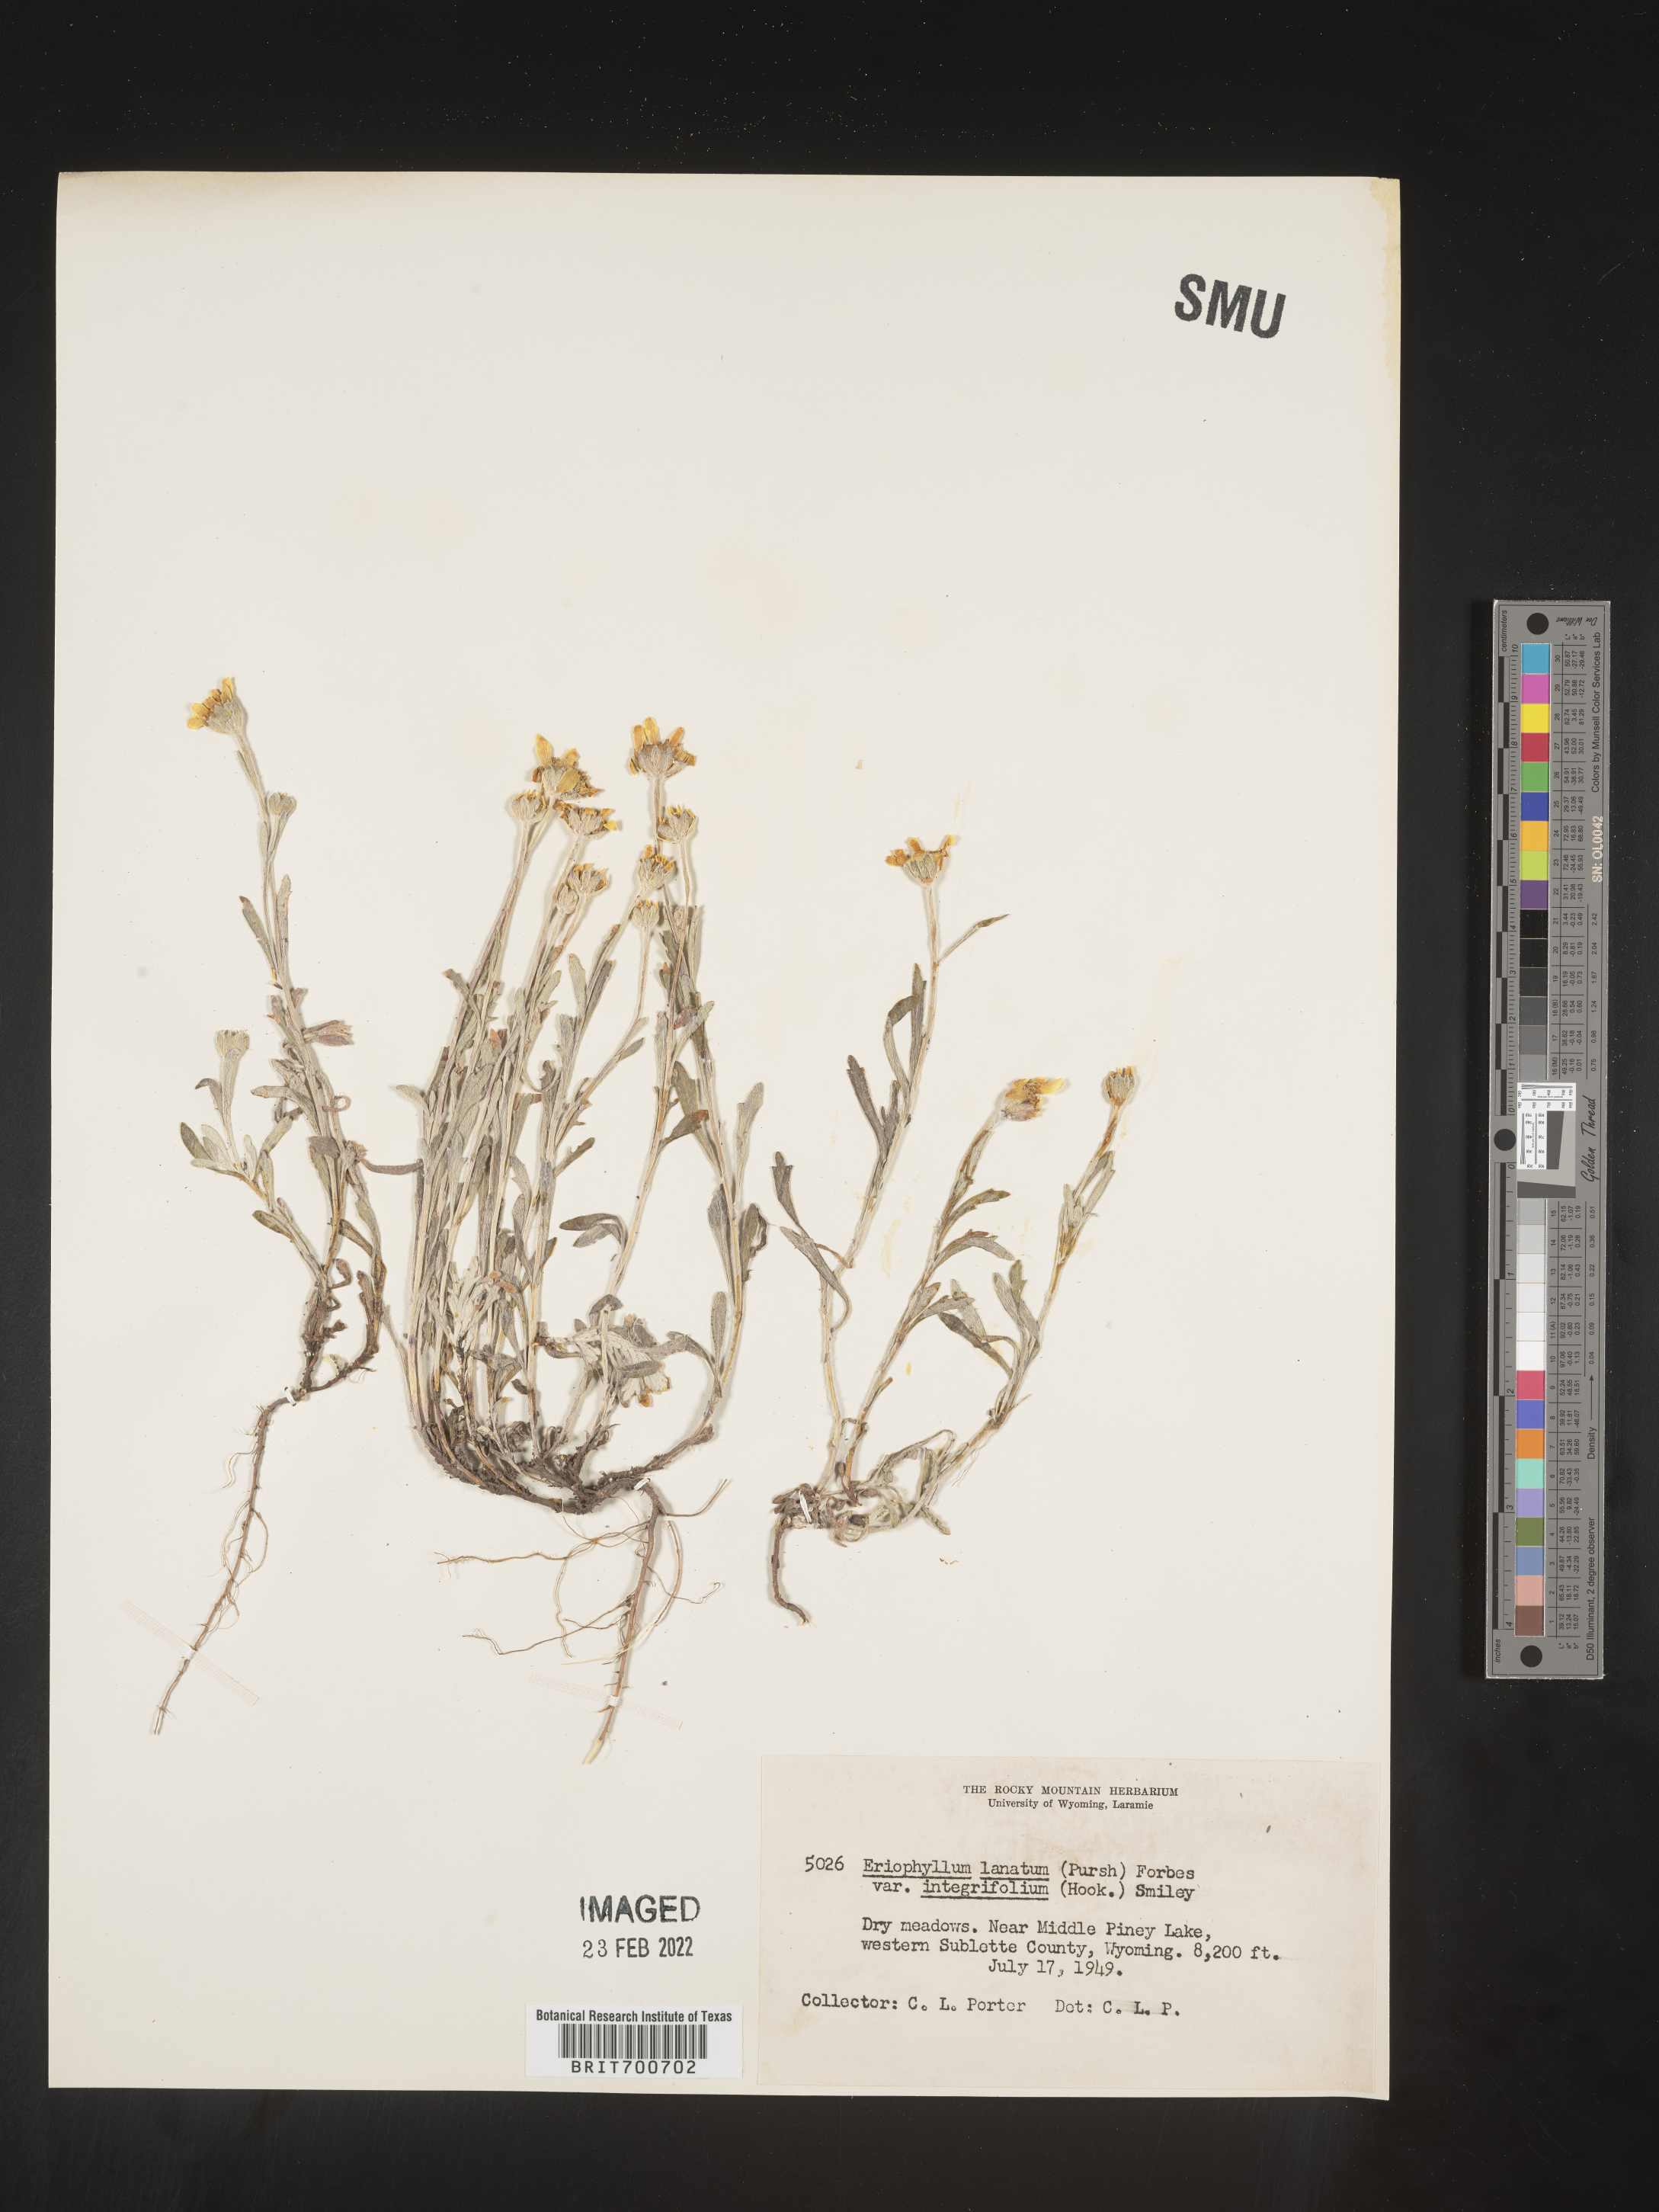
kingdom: Plantae
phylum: Tracheophyta
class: Magnoliopsida
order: Asterales
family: Asteraceae
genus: Eriophyllum
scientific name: Eriophyllum lanatum
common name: Common woolly-sunflower
